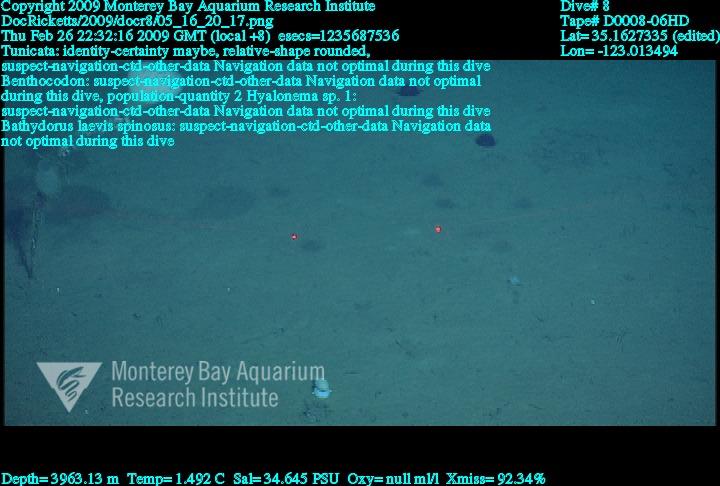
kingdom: Animalia
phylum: Porifera
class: Hexactinellida
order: Amphidiscosida
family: Hyalonematidae
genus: Hyalonema
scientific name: Hyalonema
